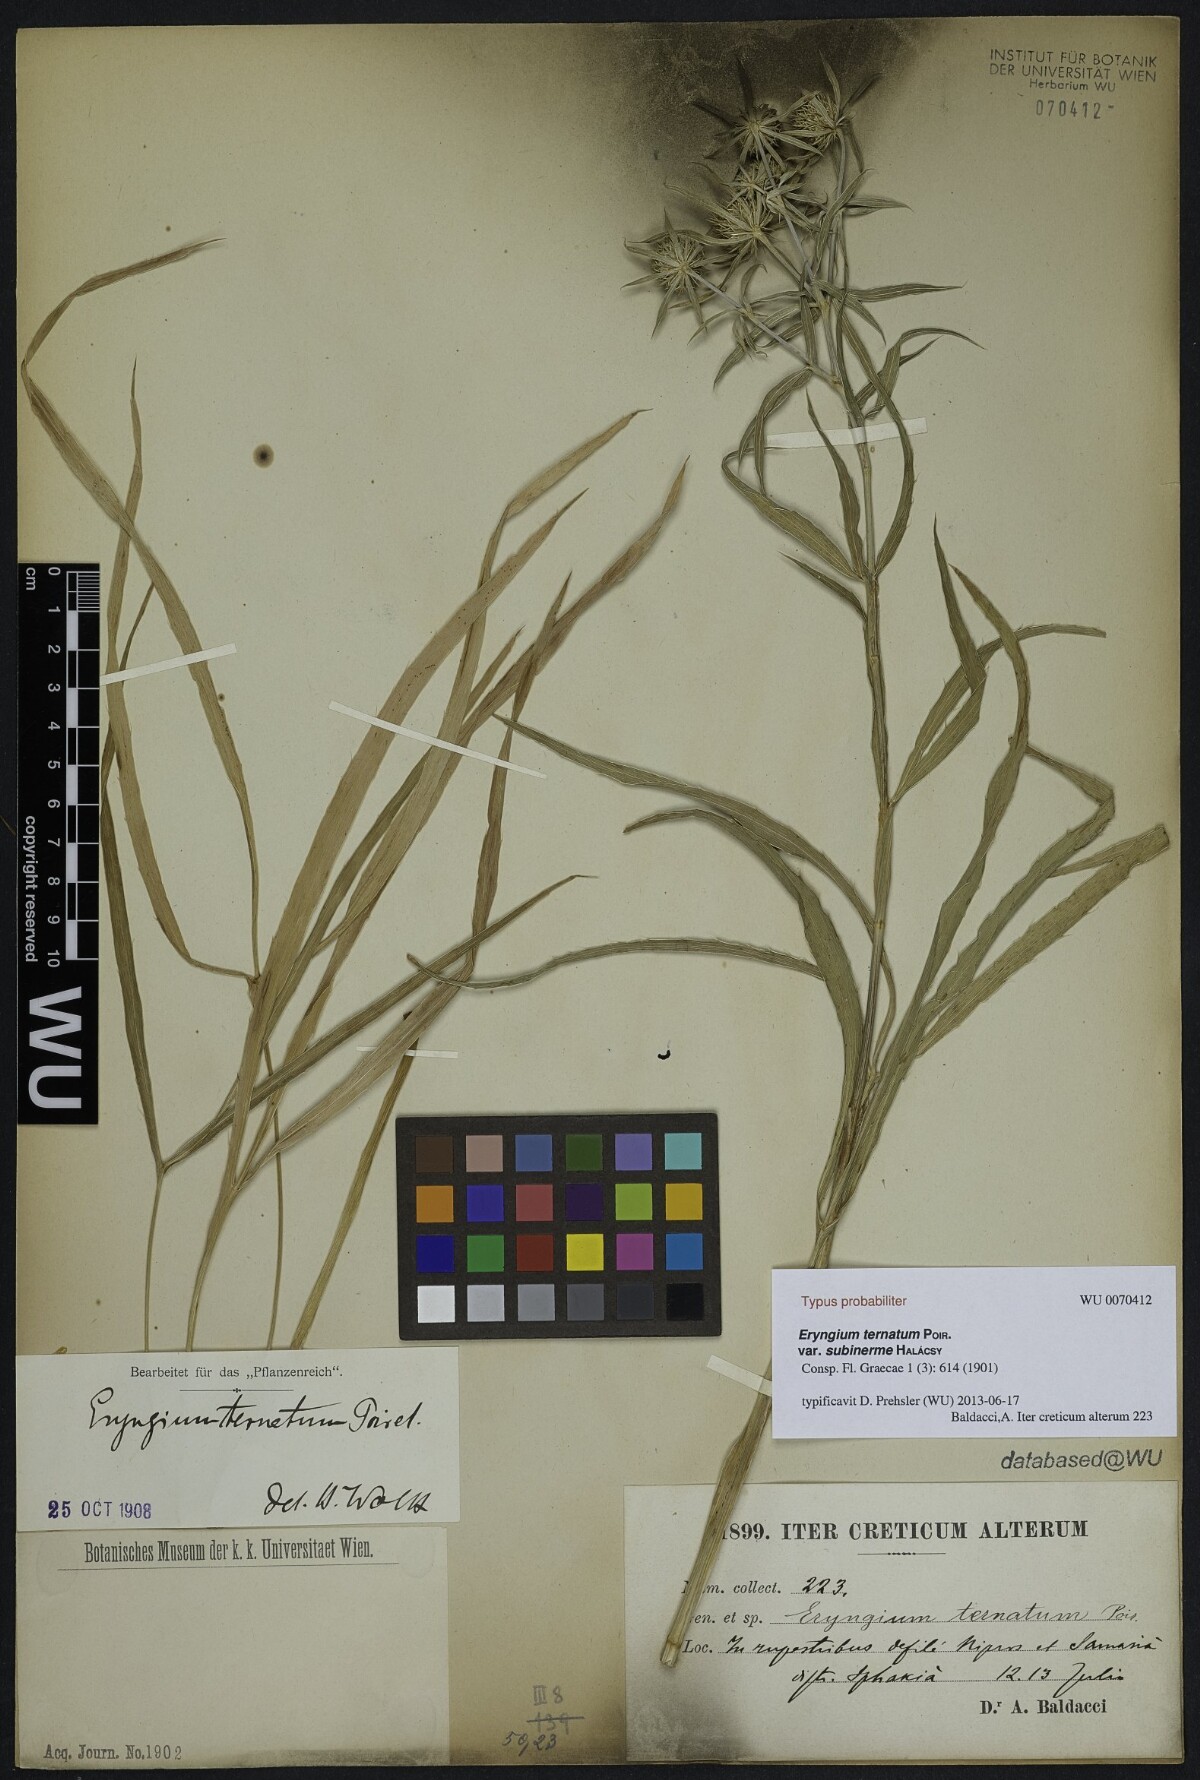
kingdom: Plantae
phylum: Tracheophyta
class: Magnoliopsida
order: Apiales
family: Apiaceae
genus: Eryngium
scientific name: Eryngium ternatum
